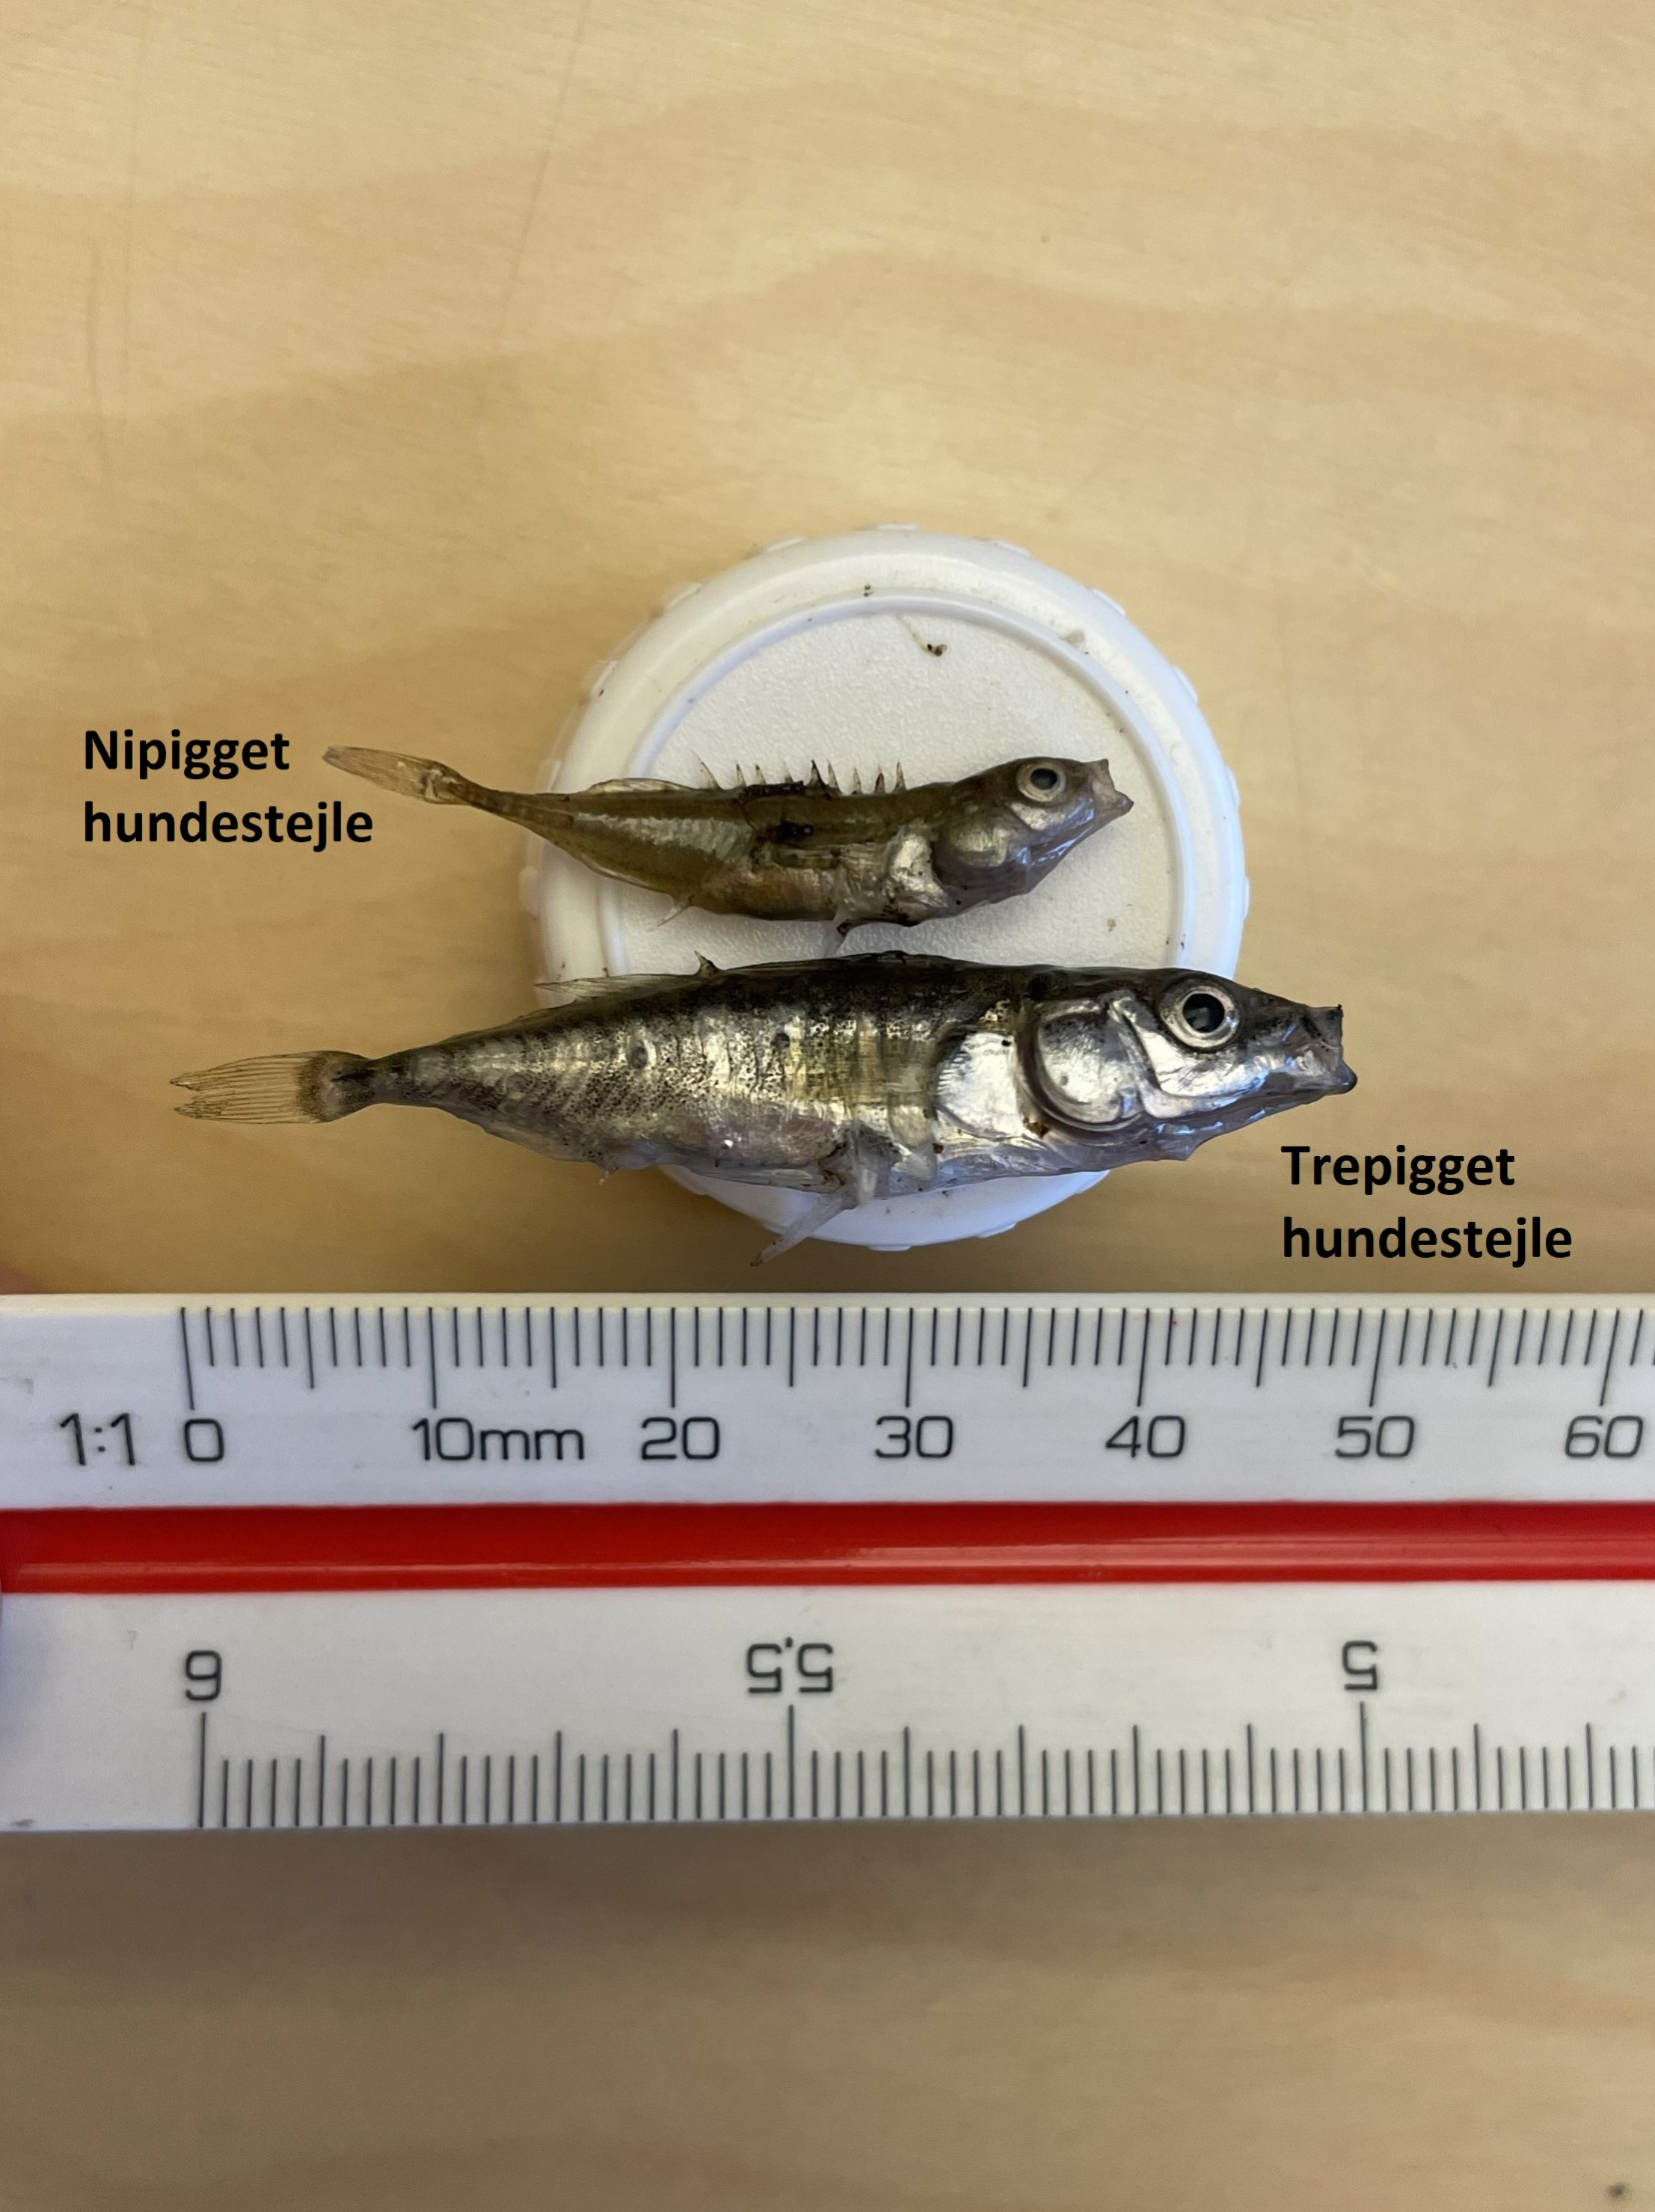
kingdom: Animalia
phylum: Chordata
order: Gasterosteiformes
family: Gasterosteidae
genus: Pungitius
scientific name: Pungitius pungitius
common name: Nipigget hundestejle
